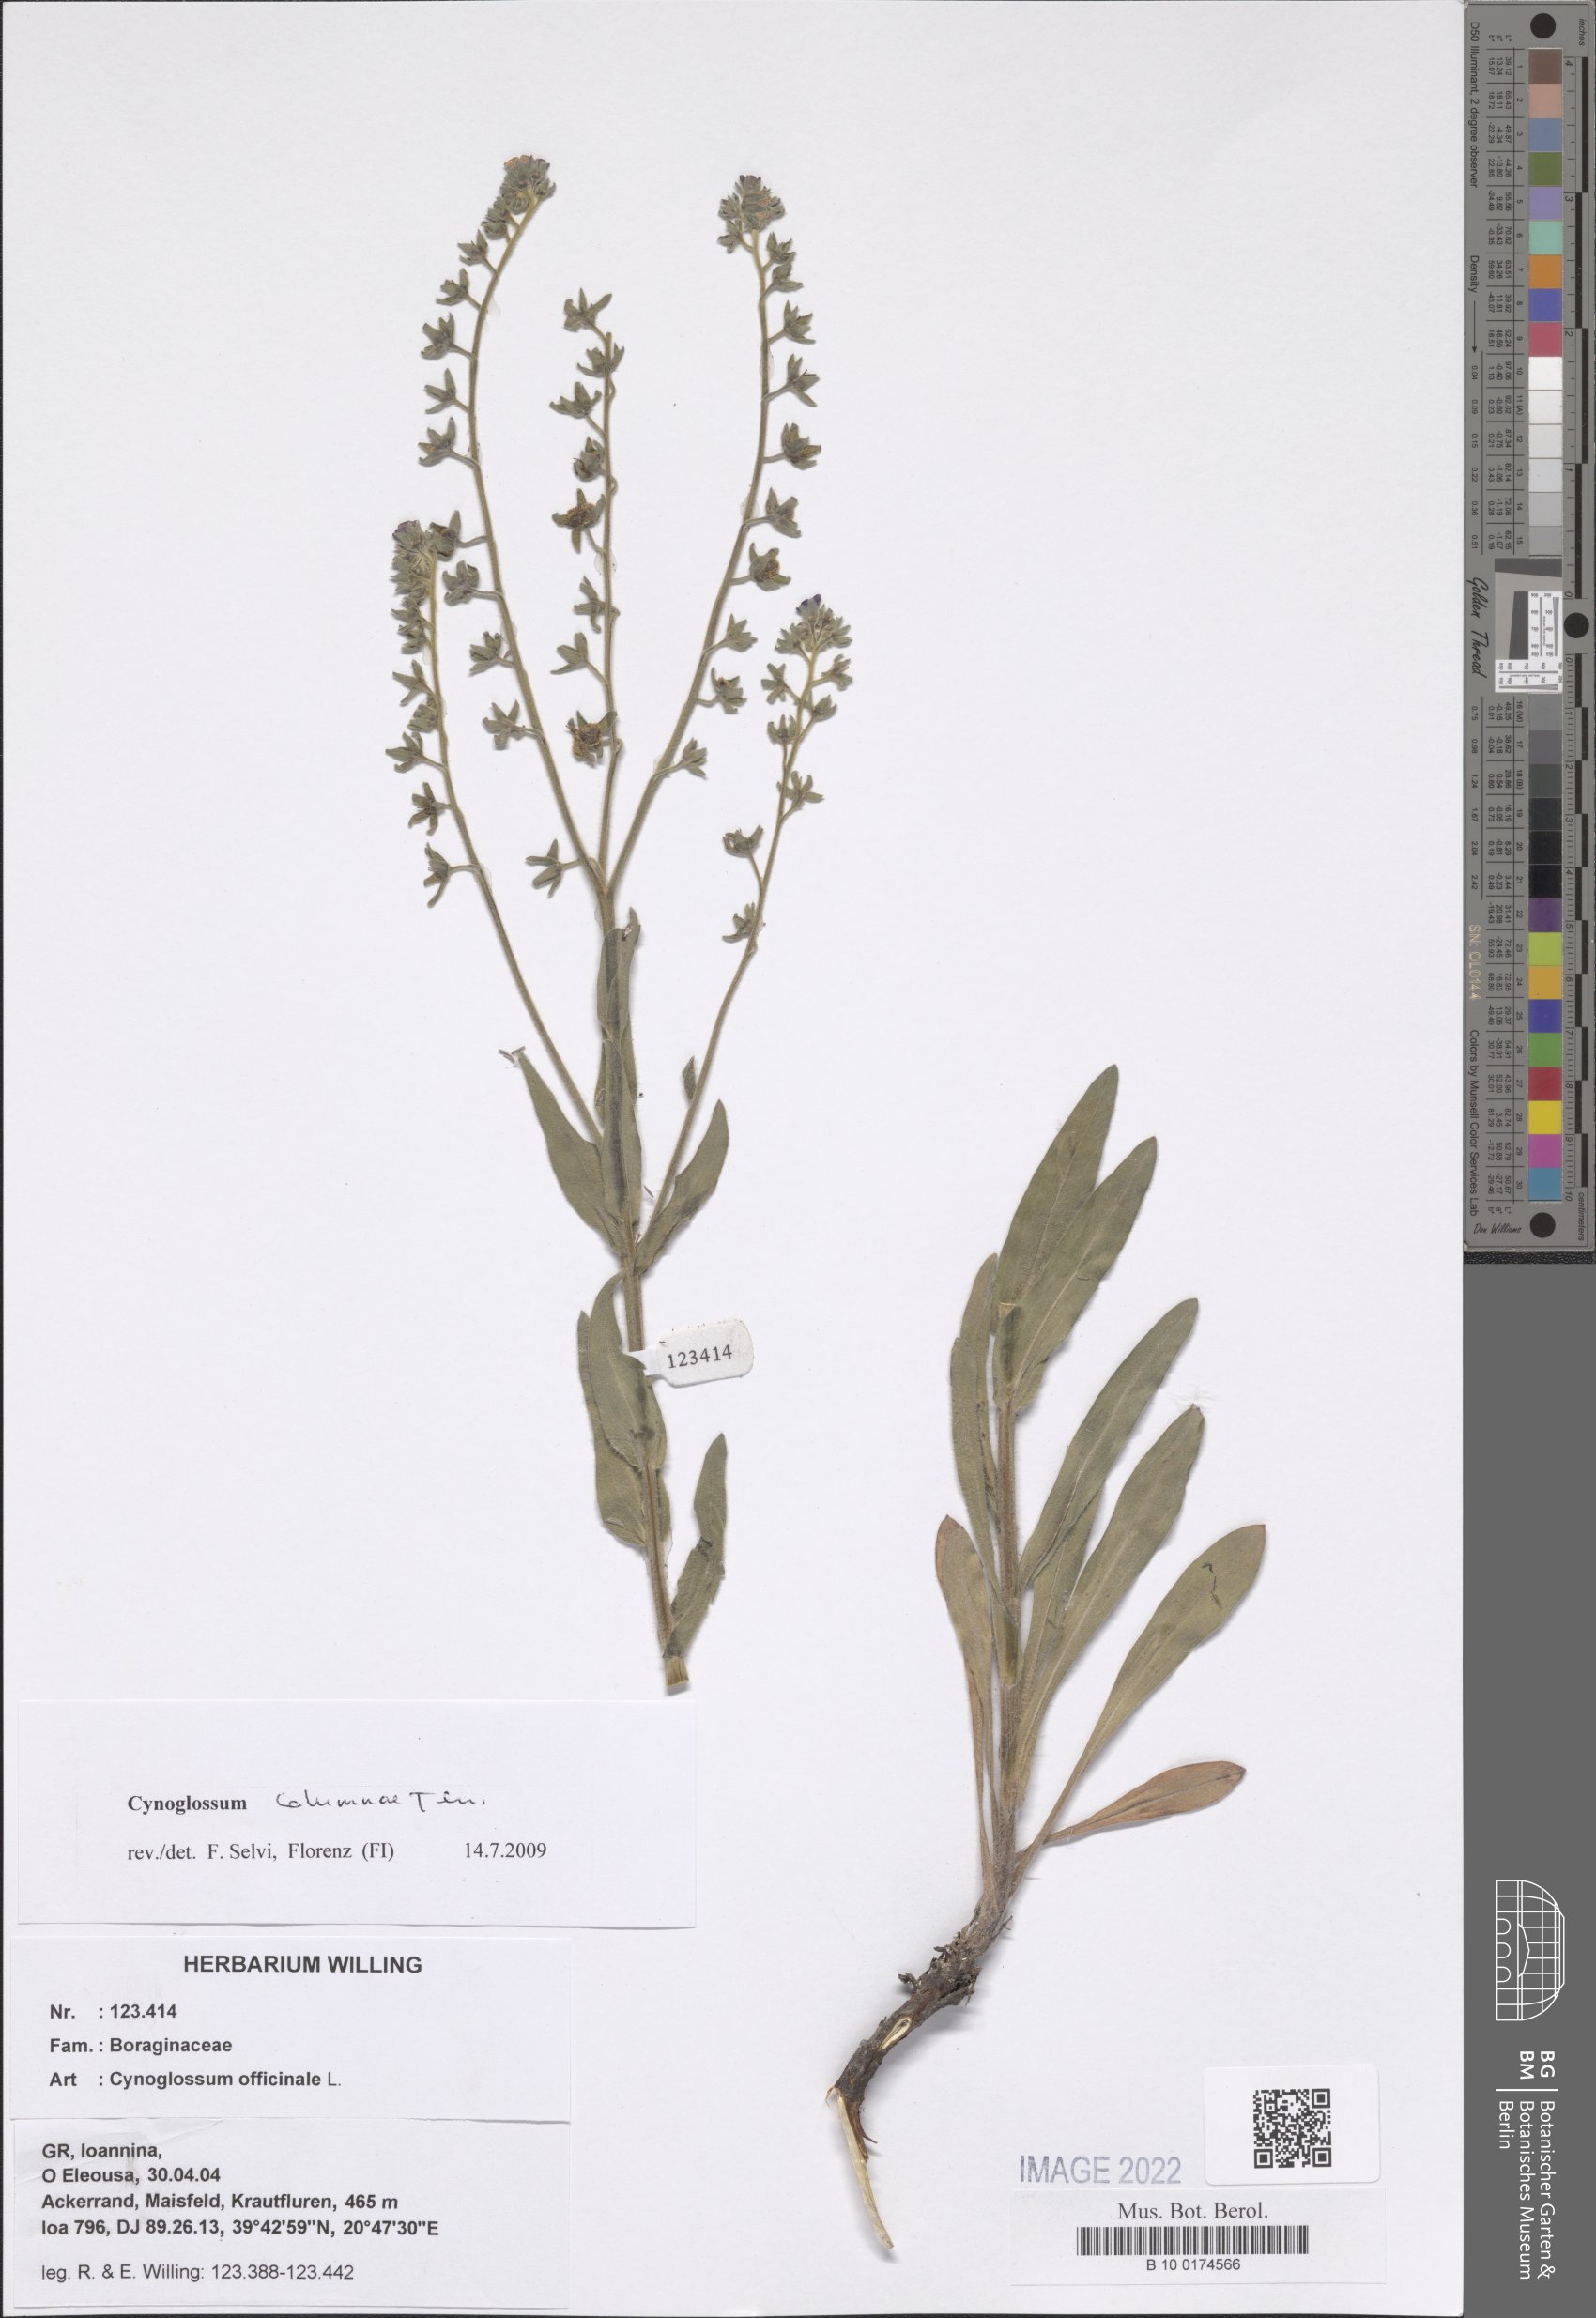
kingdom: Plantae
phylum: Tracheophyta
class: Magnoliopsida
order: Boraginales
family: Boraginaceae
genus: Rindera
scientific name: Rindera columnae
